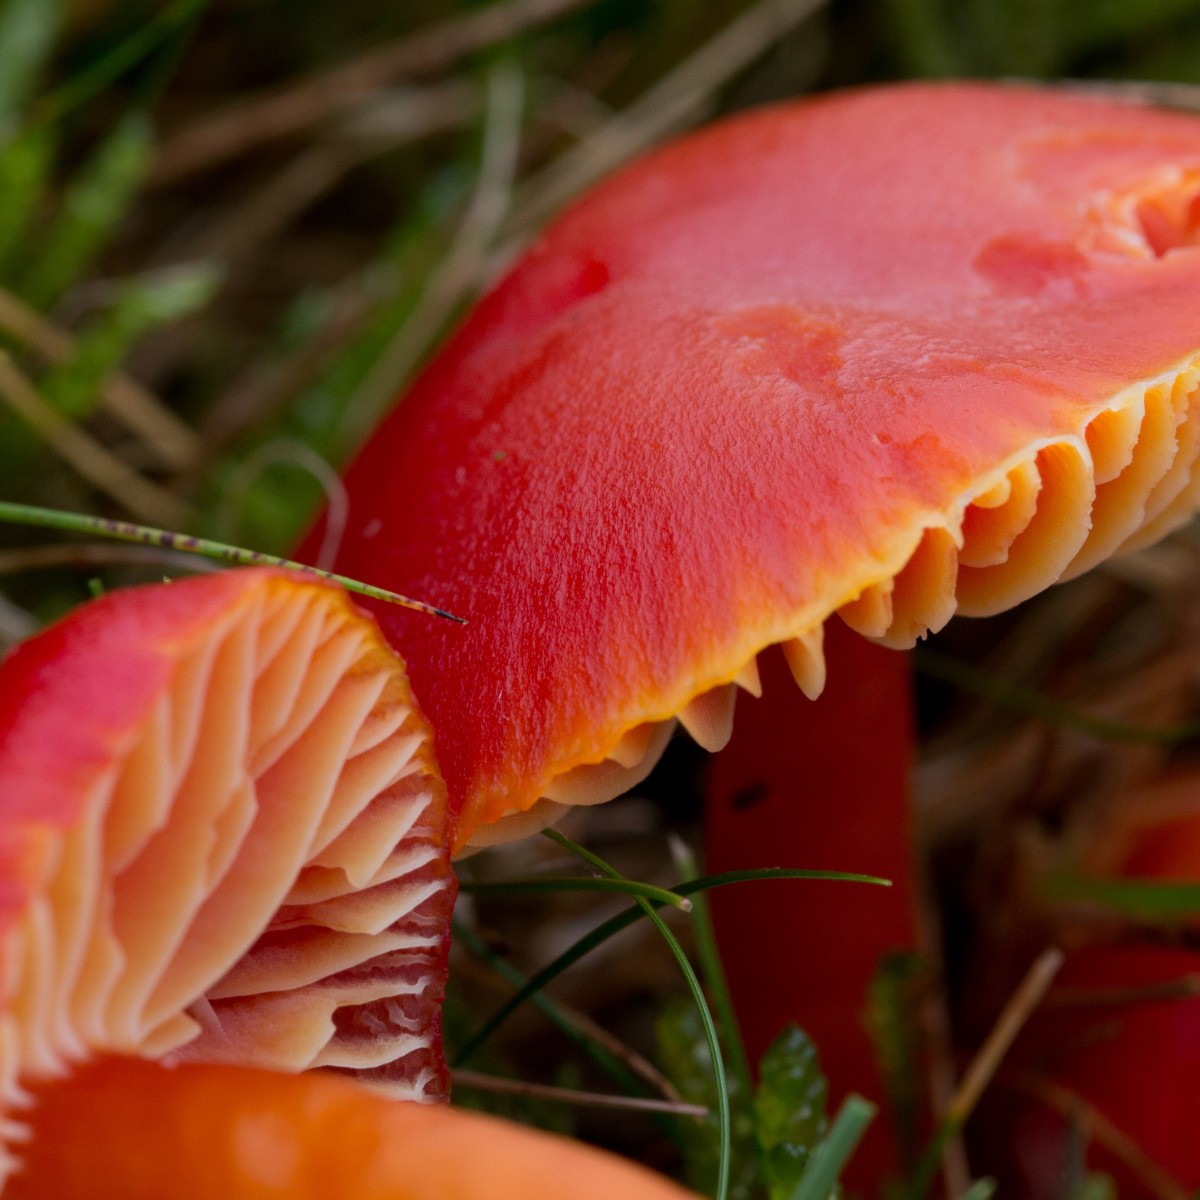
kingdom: Fungi
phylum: Basidiomycota
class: Agaricomycetes
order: Agaricales
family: Hygrophoraceae
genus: Hygrocybe
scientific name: Hygrocybe coccinea
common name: cinnober-vokshat
